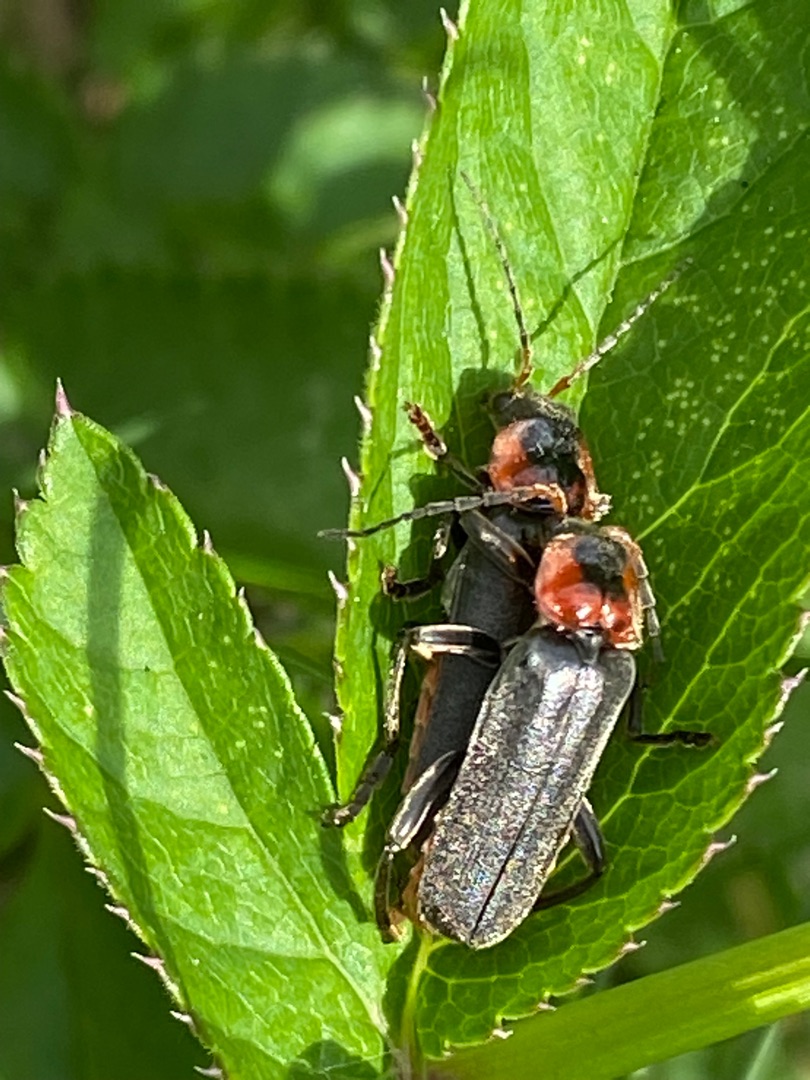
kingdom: Animalia
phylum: Arthropoda
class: Insecta
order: Coleoptera
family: Cantharidae
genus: Cantharis
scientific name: Cantharis fusca
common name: Stor blødvinge
